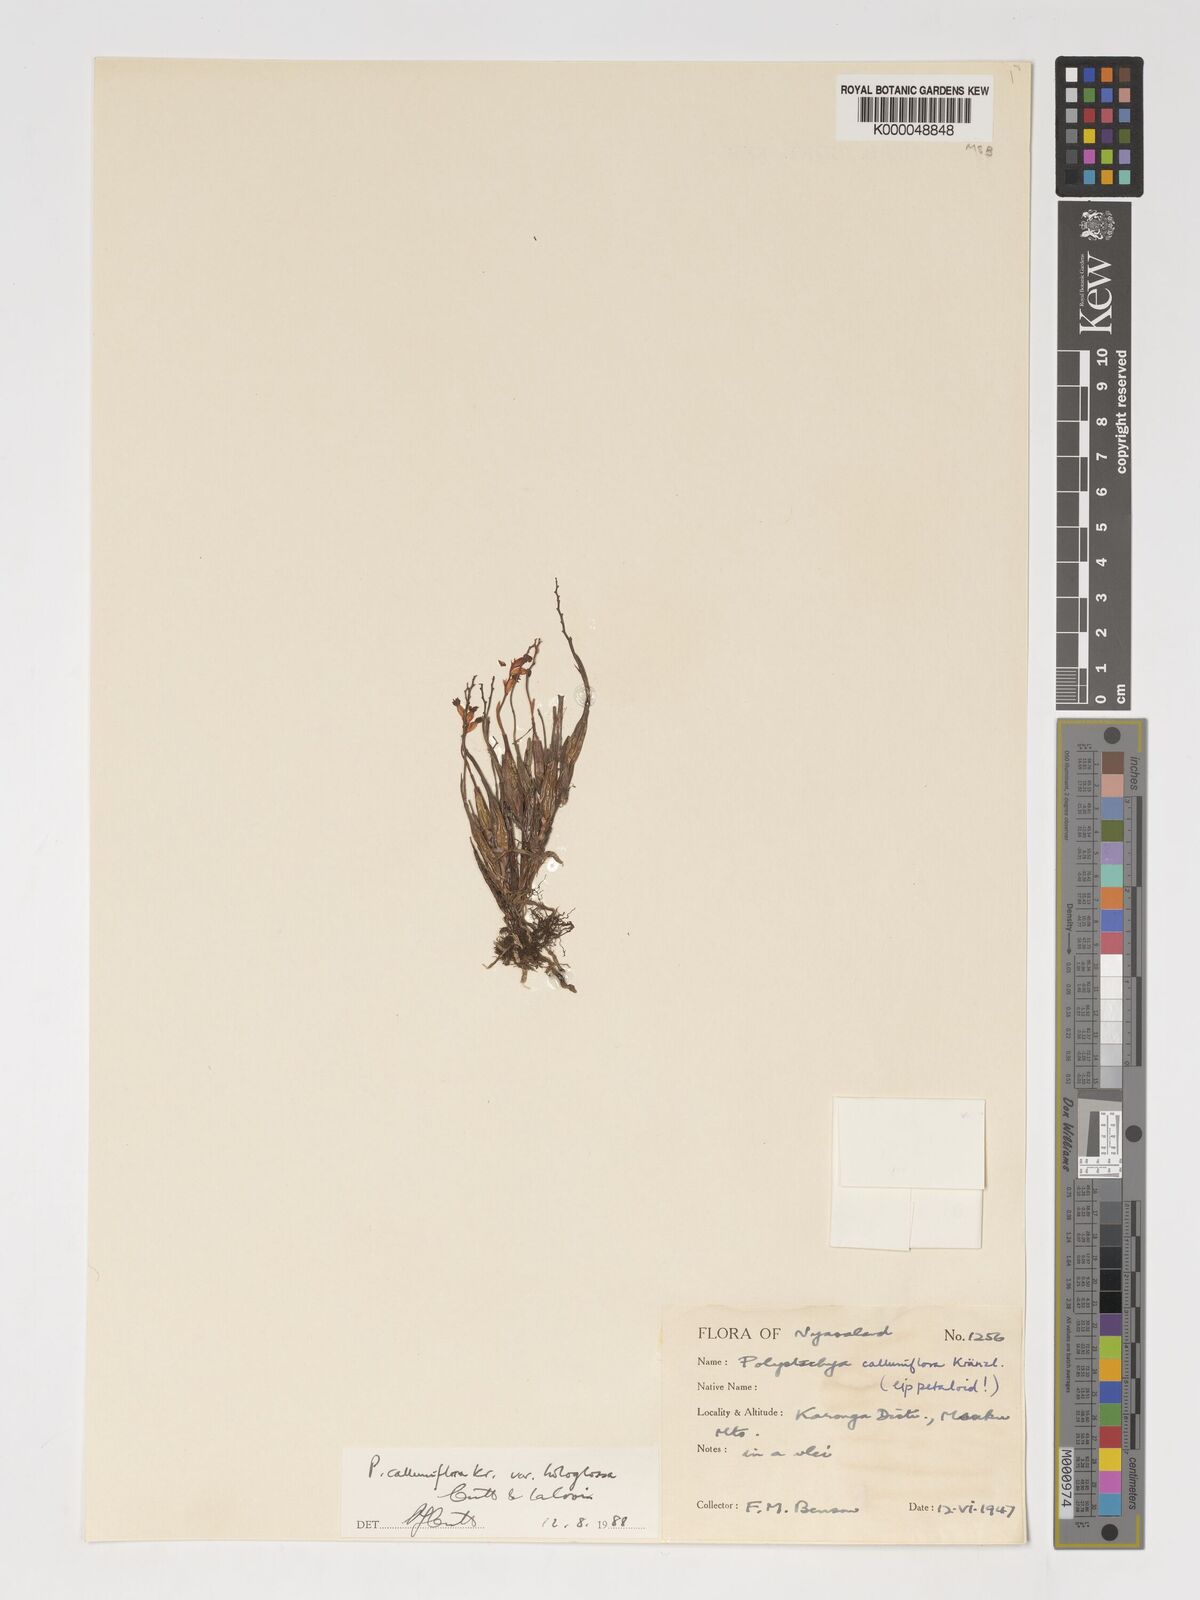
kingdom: Plantae
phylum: Tracheophyta
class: Liliopsida
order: Asparagales
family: Orchidaceae
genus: Polystachya
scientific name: Polystachya hologlossa
